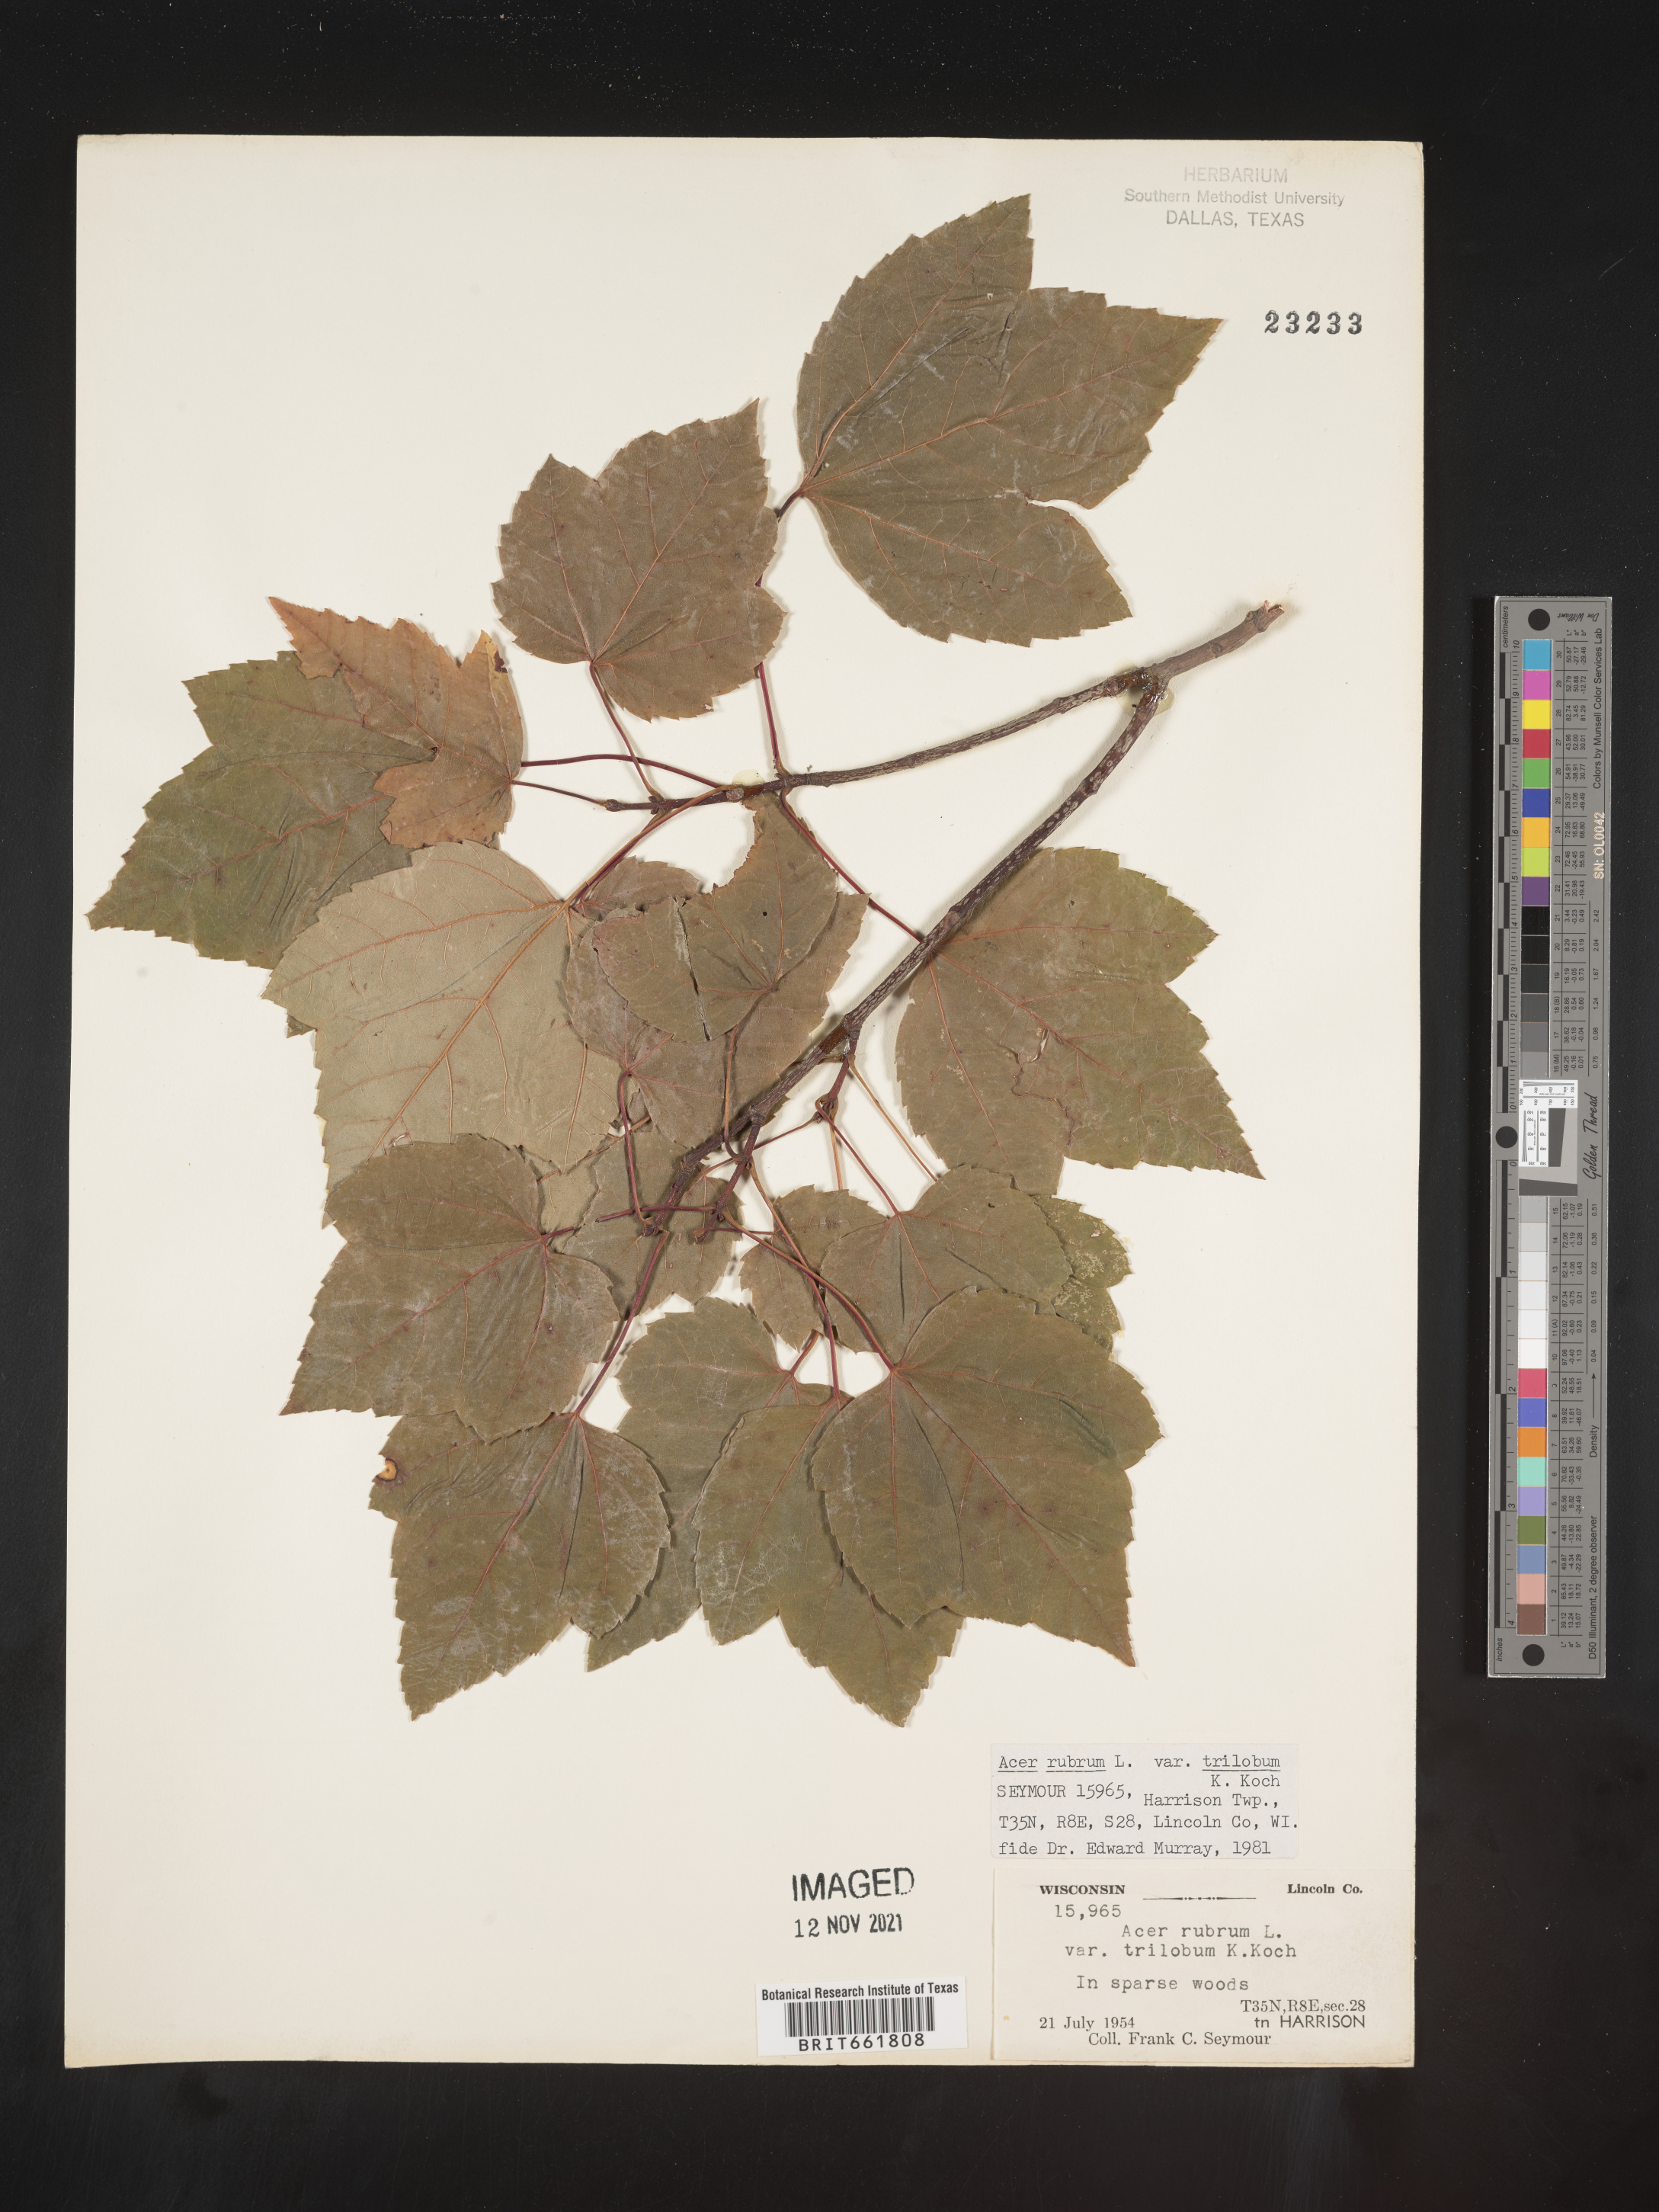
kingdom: Plantae
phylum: Tracheophyta
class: Magnoliopsida
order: Sapindales
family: Sapindaceae
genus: Acer
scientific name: Acer rubrum
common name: Red maple
